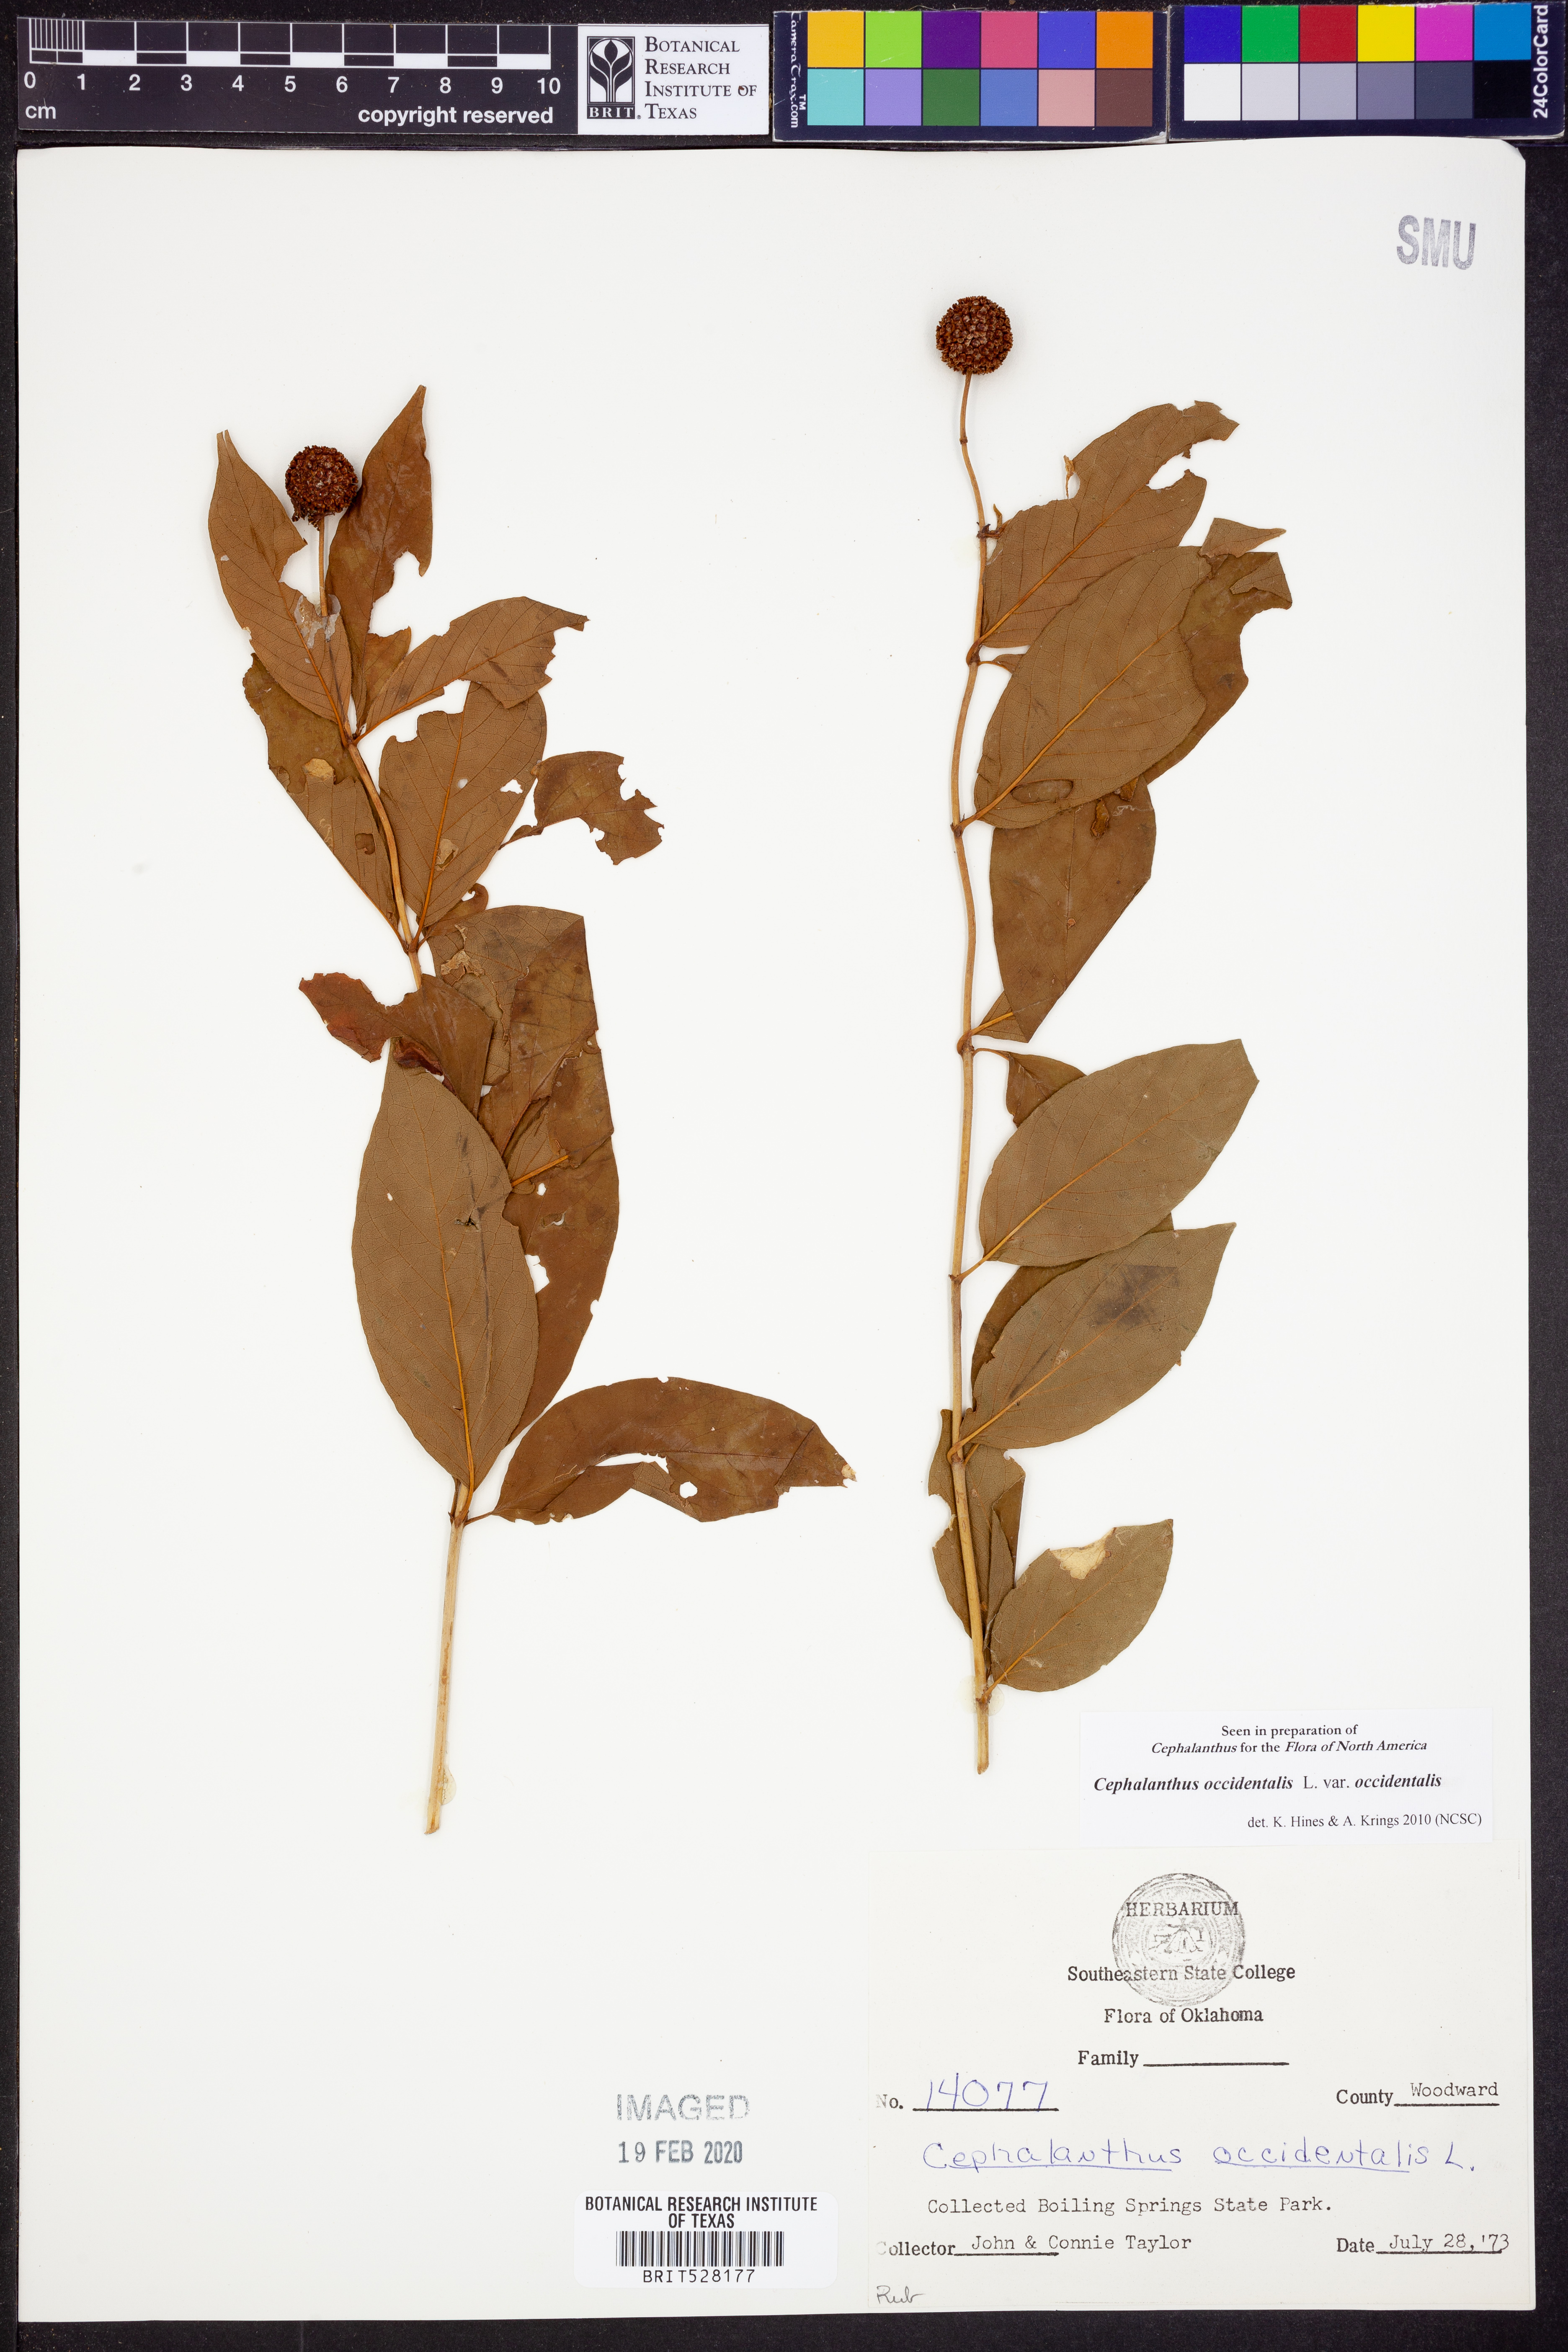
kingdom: Plantae
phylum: Tracheophyta
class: Magnoliopsida
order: Gentianales
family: Rubiaceae
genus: Cephalanthus
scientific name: Cephalanthus occidentalis
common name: Button-willow
